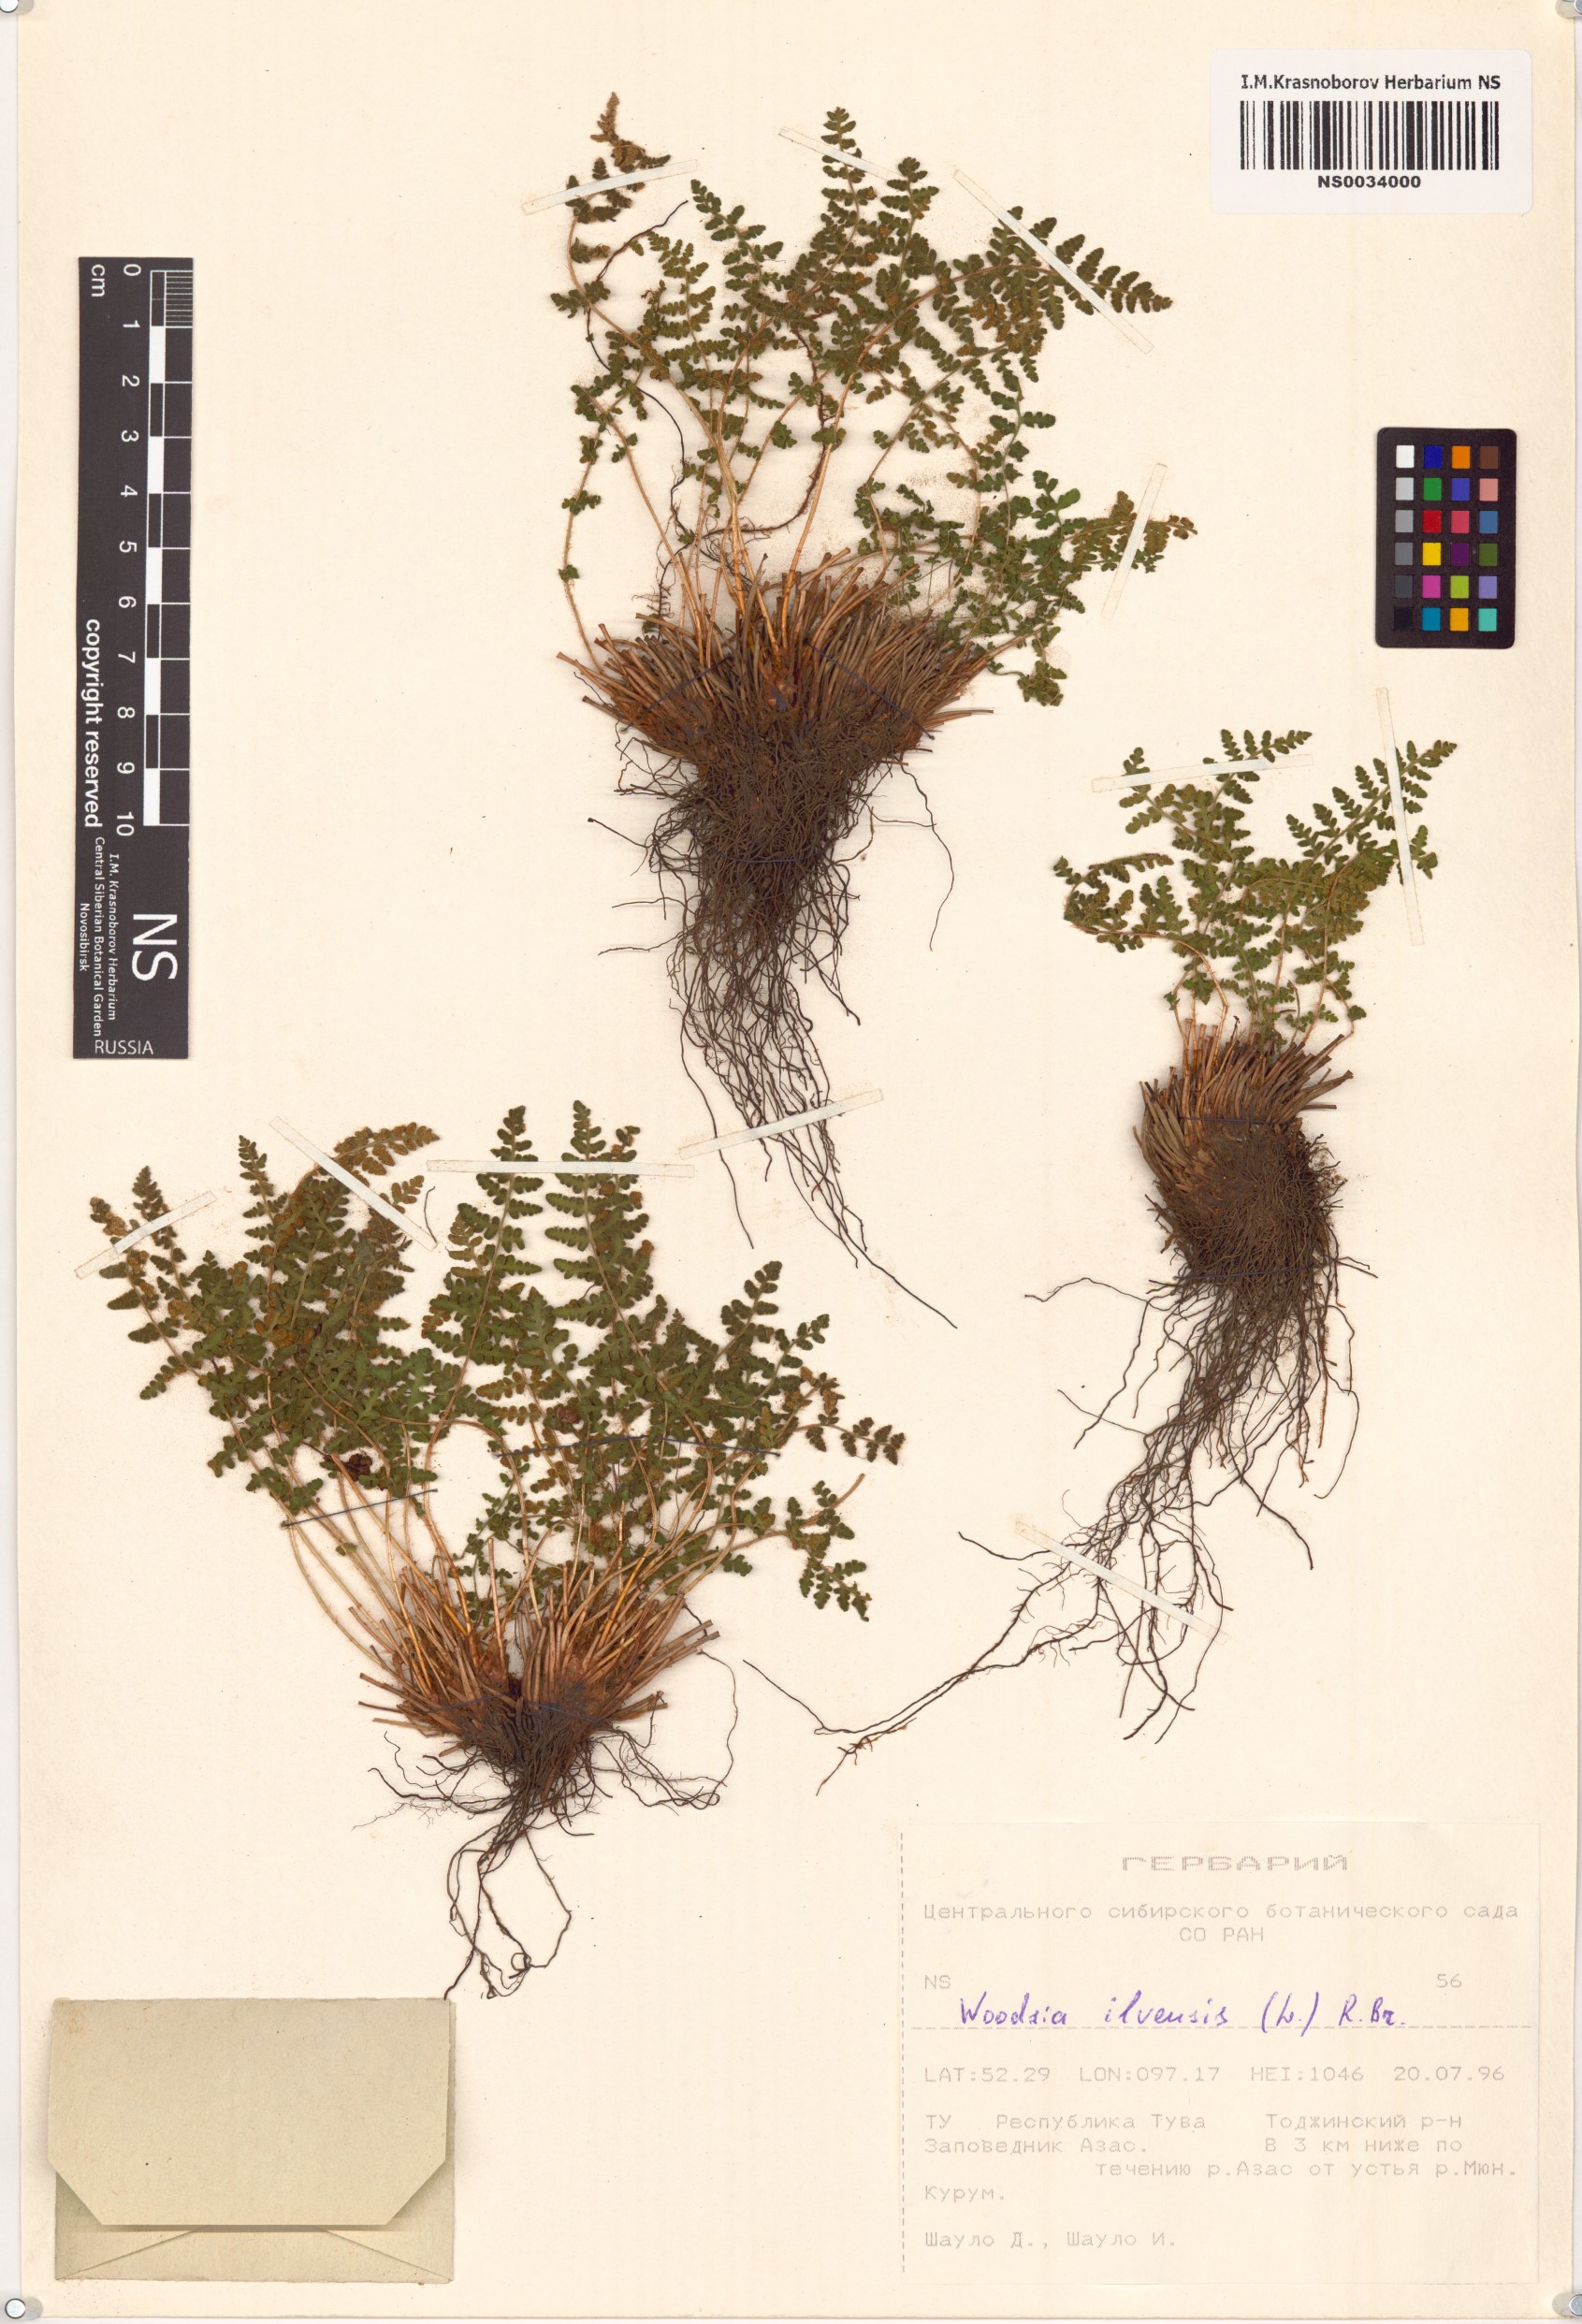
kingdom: Plantae
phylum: Tracheophyta
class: Polypodiopsida
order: Polypodiales
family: Woodsiaceae
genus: Woodsia
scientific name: Woodsia ilvensis
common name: Fragrant woodsia
